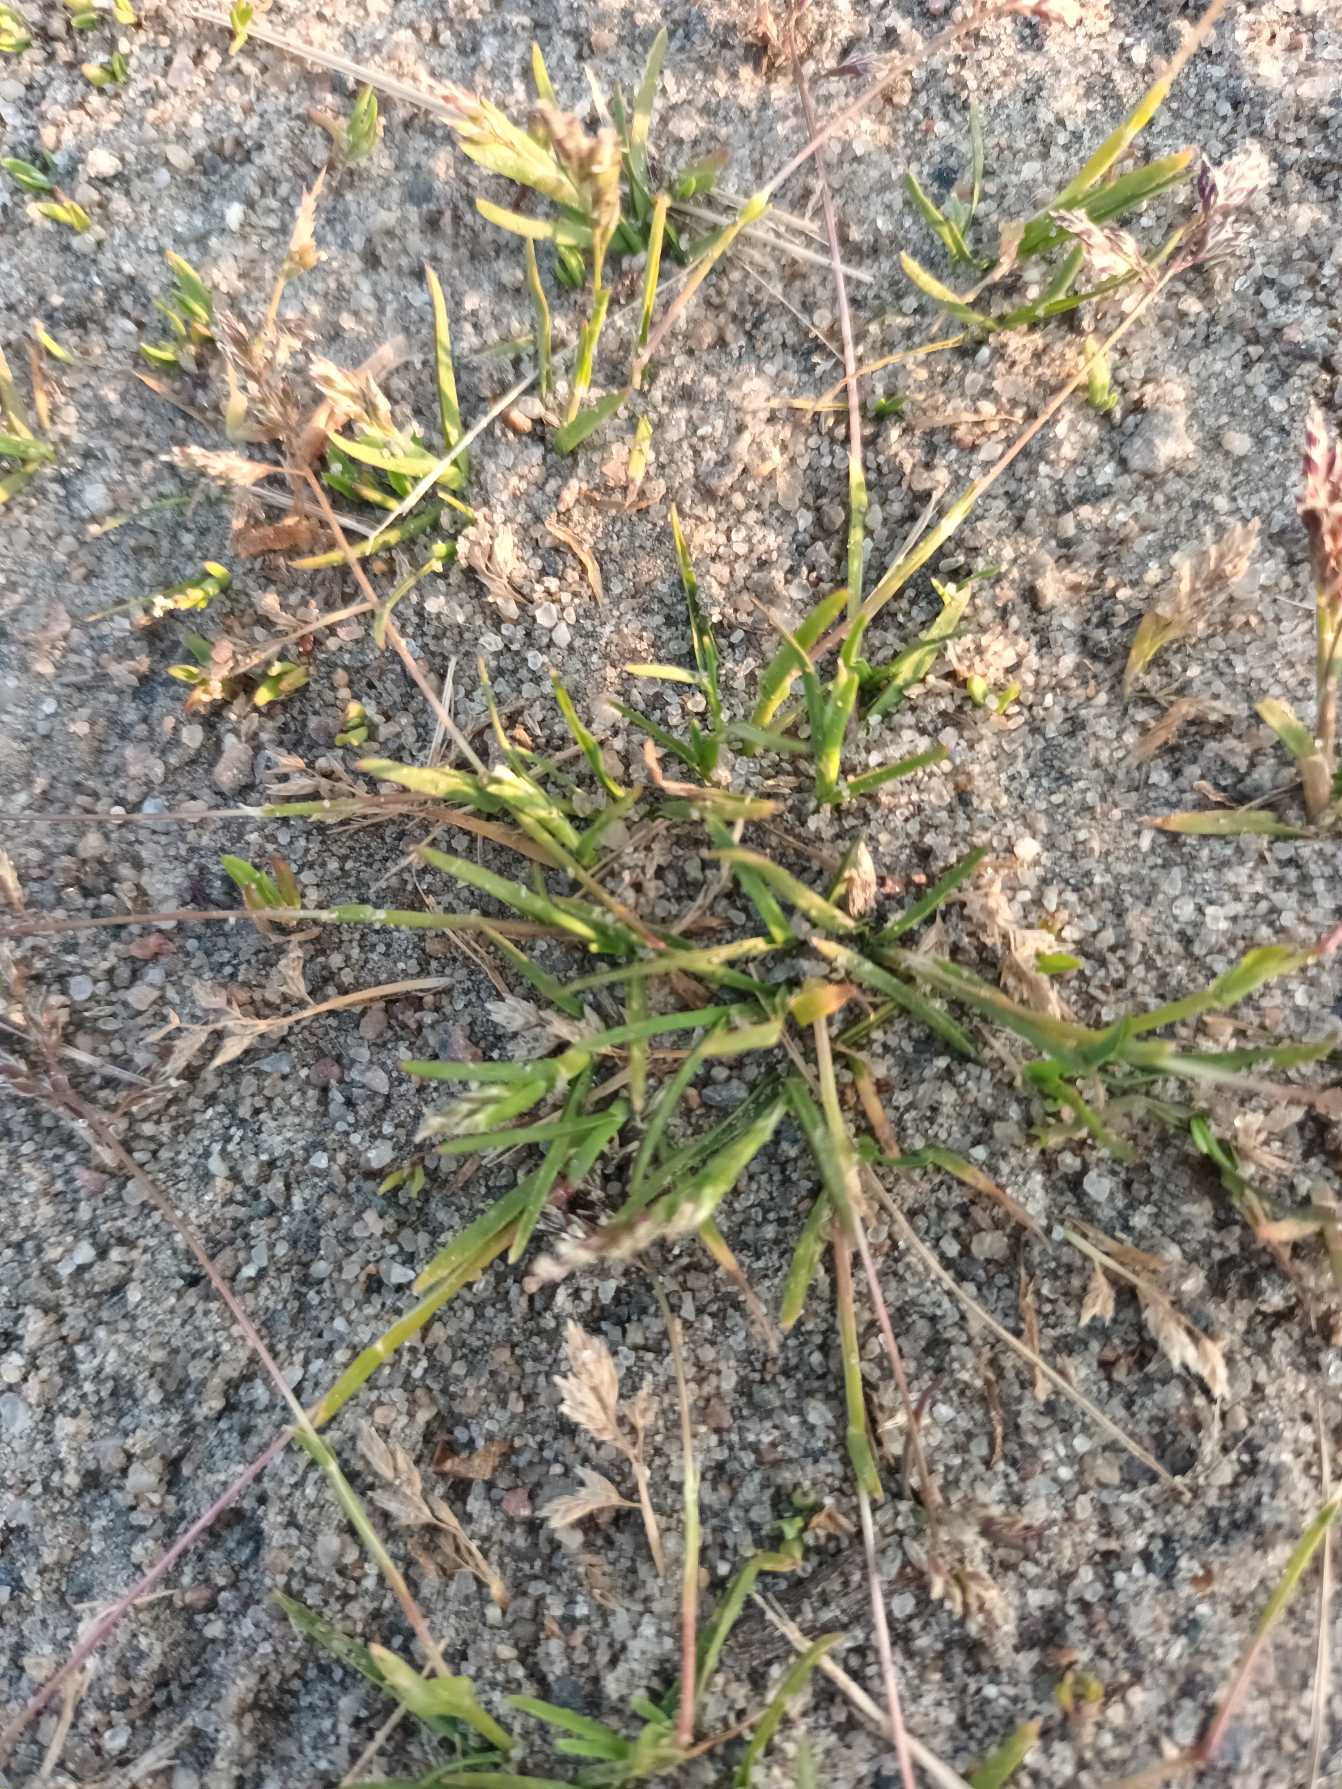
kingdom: Plantae
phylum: Tracheophyta
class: Liliopsida
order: Poales
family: Poaceae
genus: Poa
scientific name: Poa annua
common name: Enårig rapgræs
